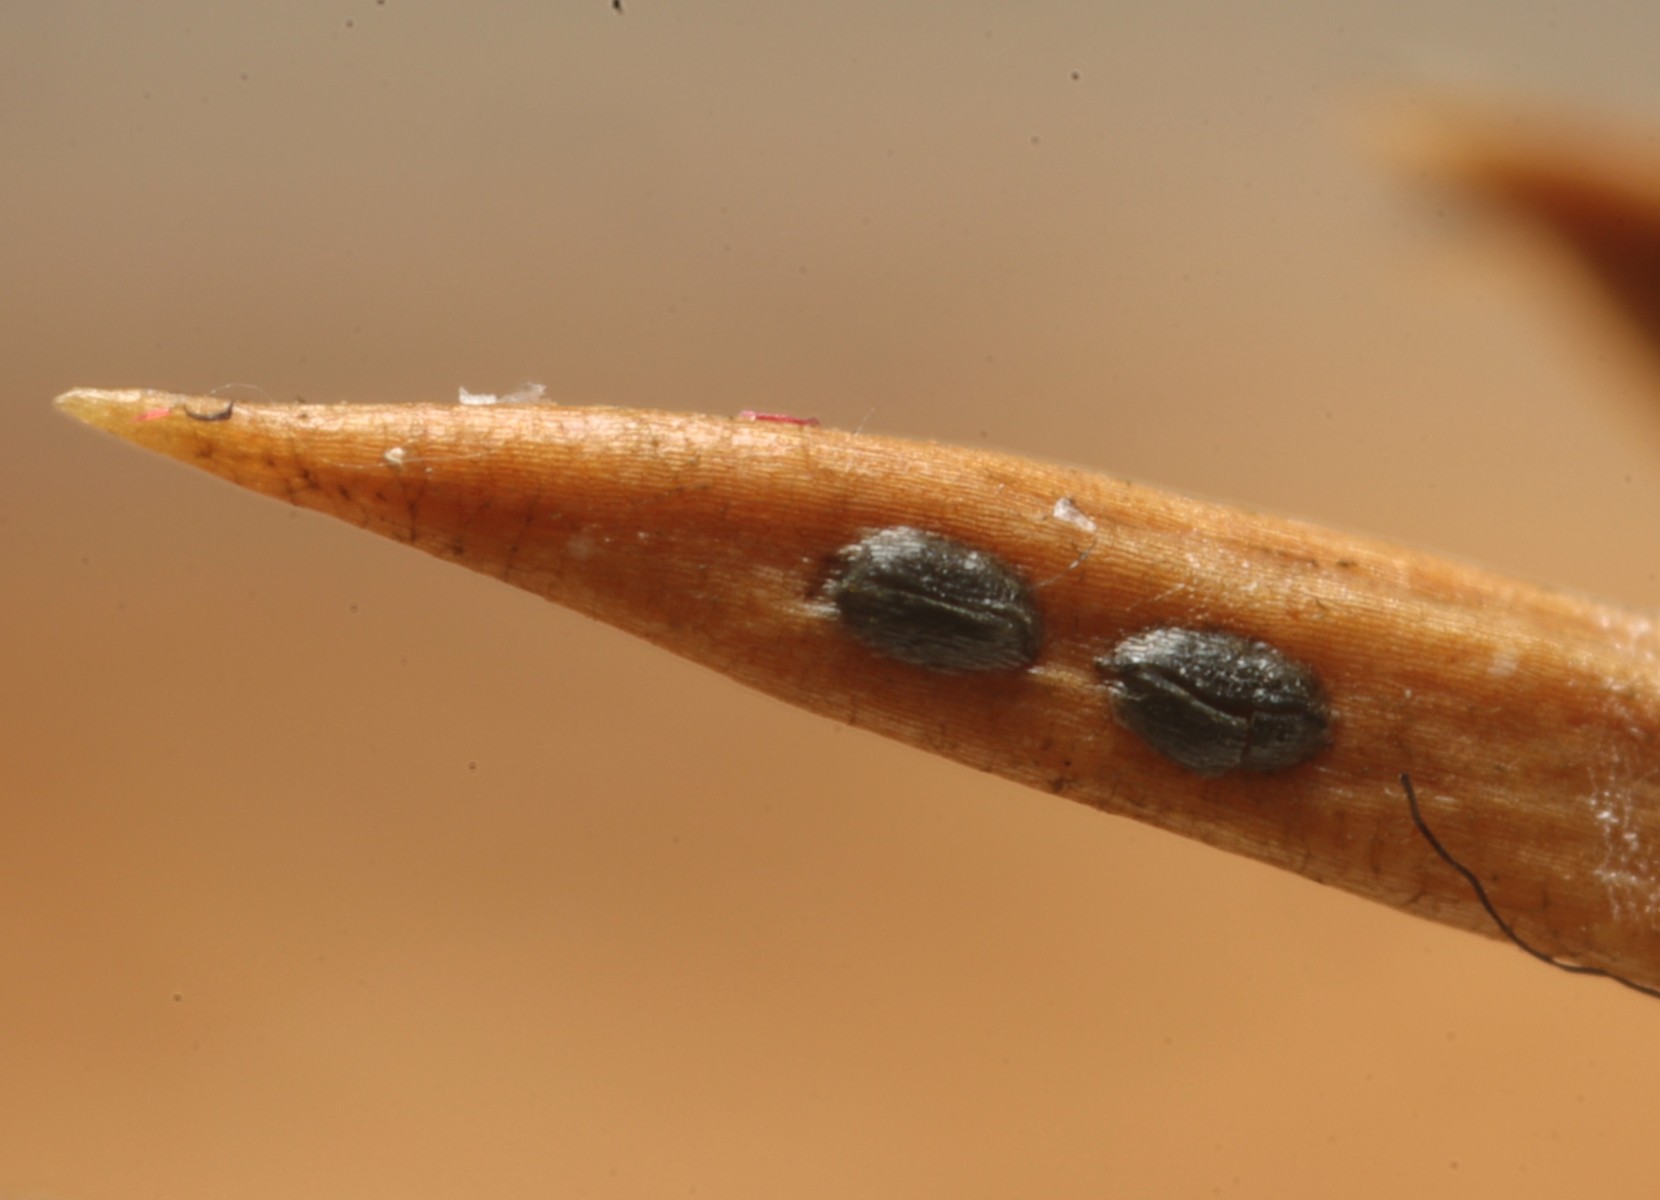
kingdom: Fungi
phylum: Ascomycota
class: Leotiomycetes
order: Rhytismatales
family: Rhytismataceae
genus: Lophodermium
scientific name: Lophodermium juniperinum
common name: ene-fureplet
